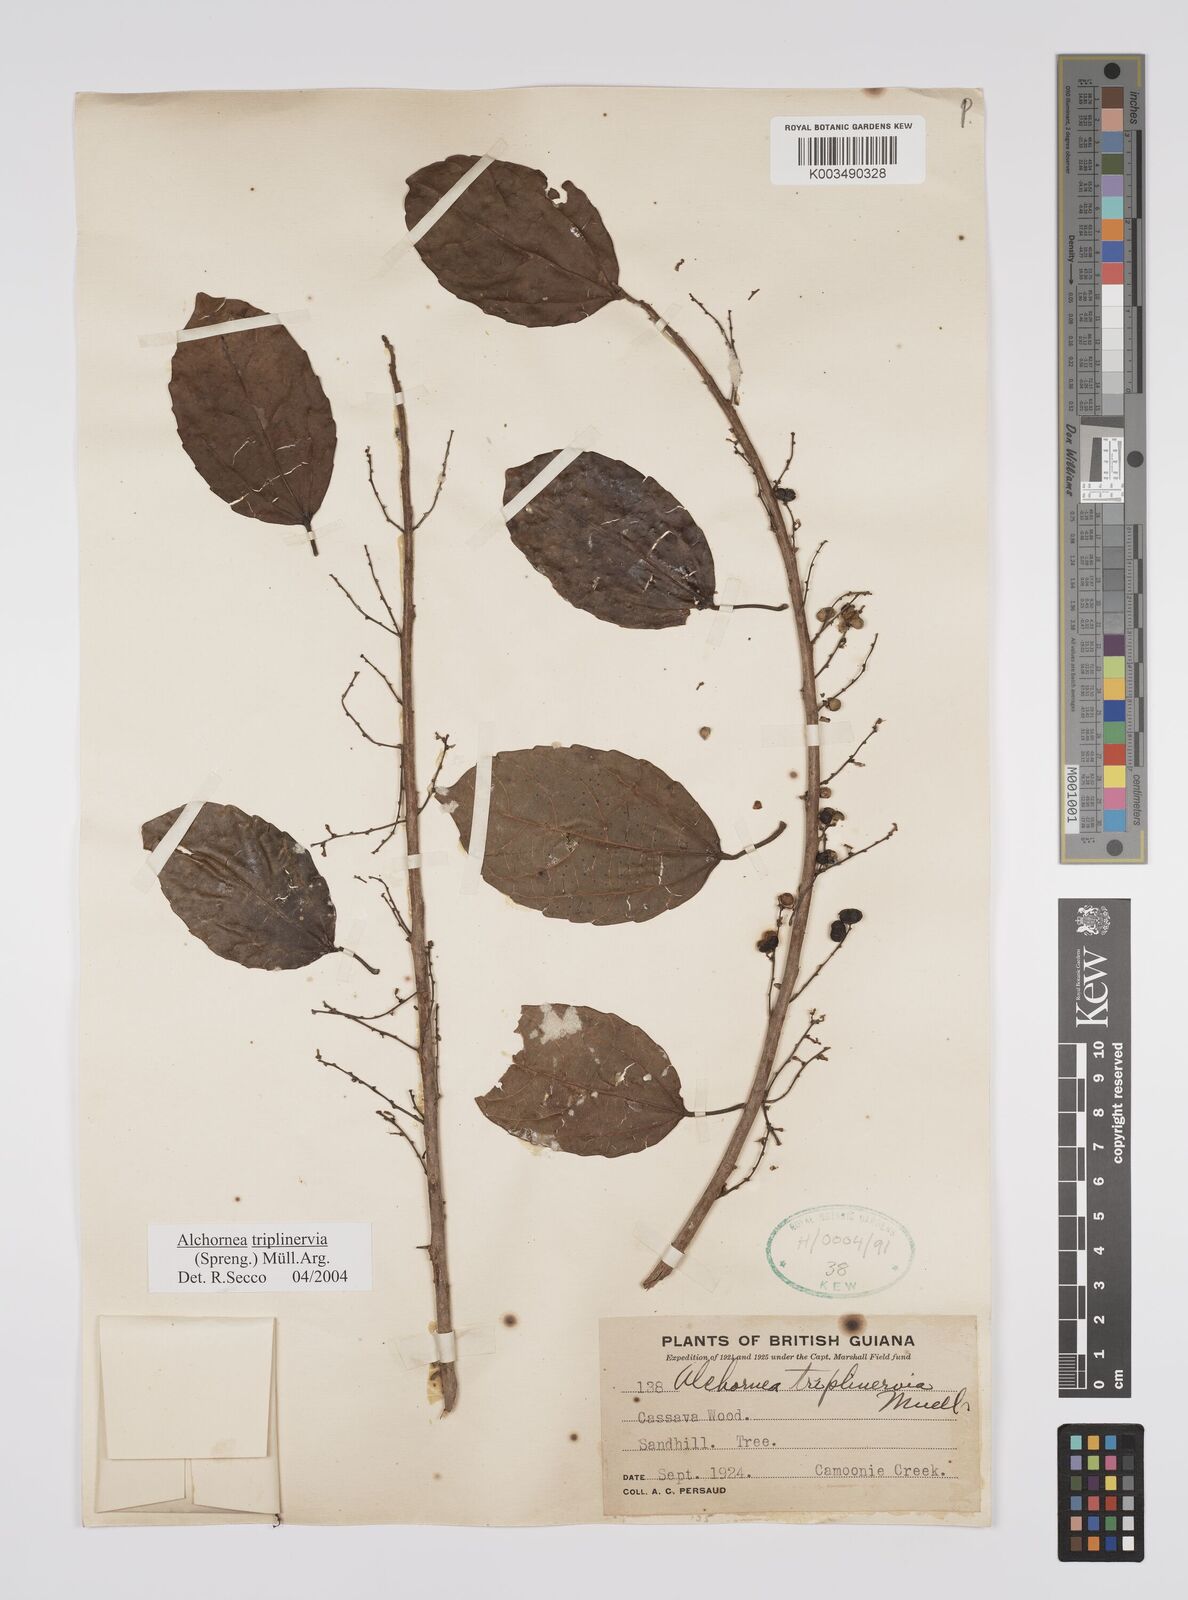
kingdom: Plantae
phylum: Tracheophyta
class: Magnoliopsida
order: Malpighiales
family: Euphorbiaceae
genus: Alchornea
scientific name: Alchornea triplinervia
